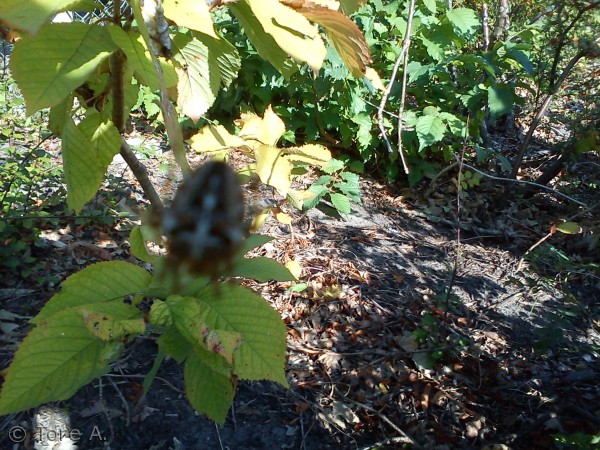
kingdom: Animalia
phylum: Arthropoda
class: Arachnida
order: Araneae
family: Araneidae
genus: Araneus
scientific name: Araneus diadematus
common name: Korsedderkop
